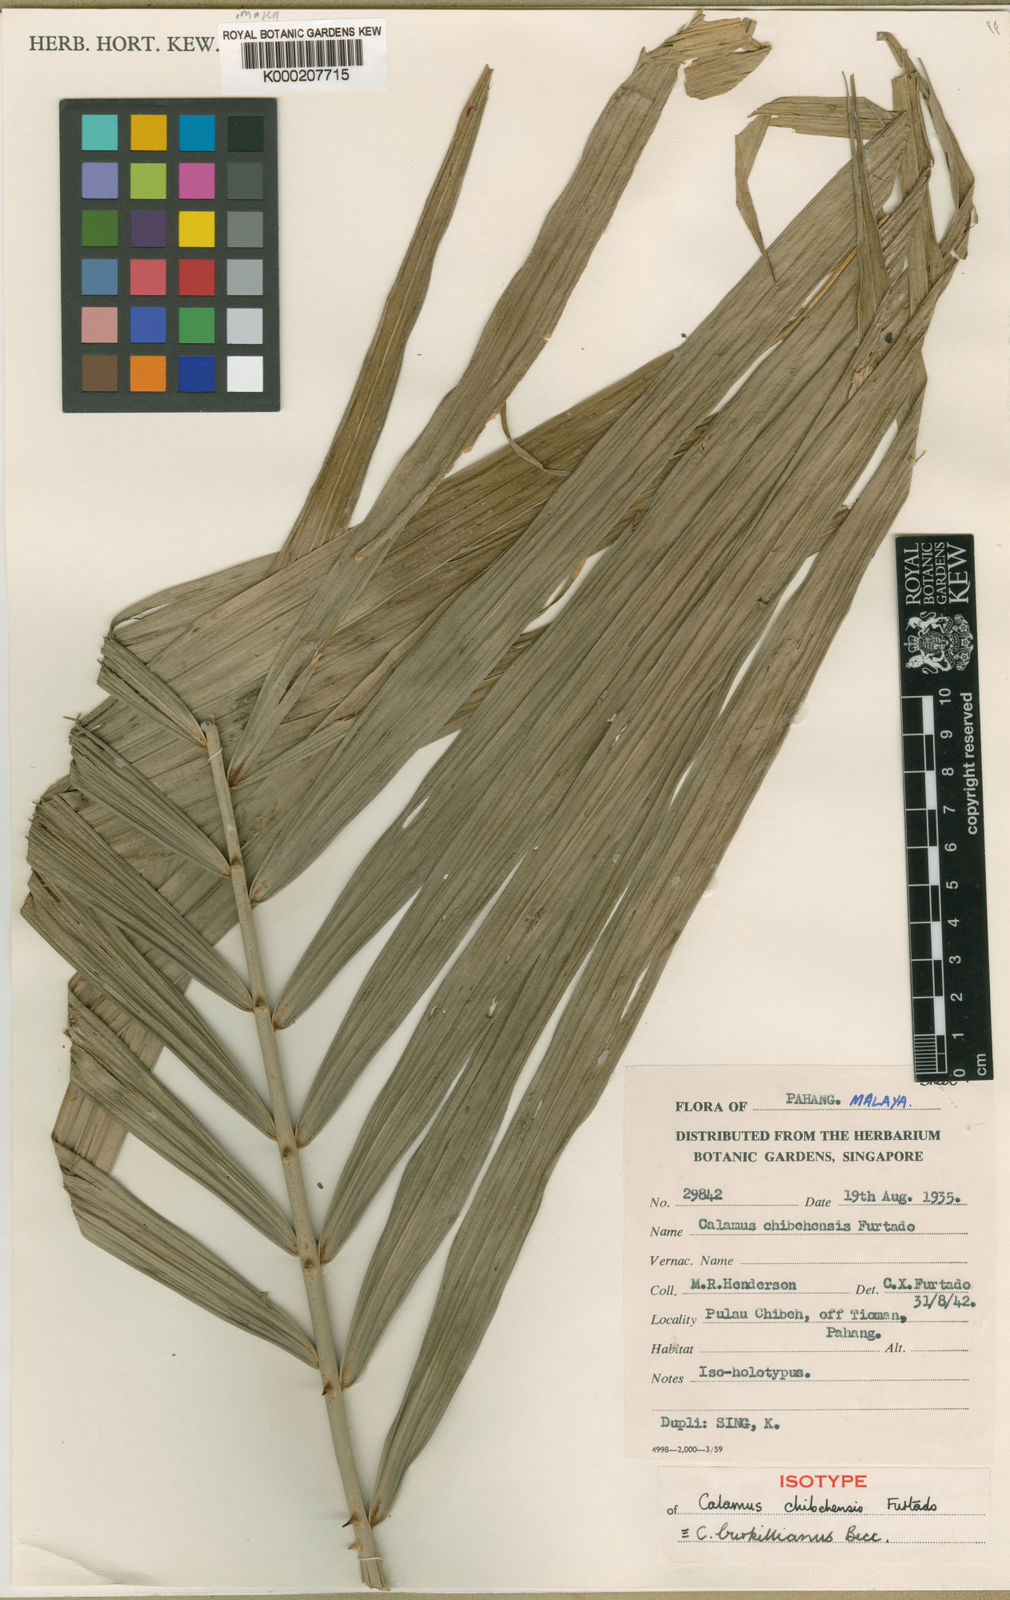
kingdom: Plantae
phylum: Tracheophyta
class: Liliopsida
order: Arecales
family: Arecaceae
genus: Calamus
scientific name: Calamus burkillianus
